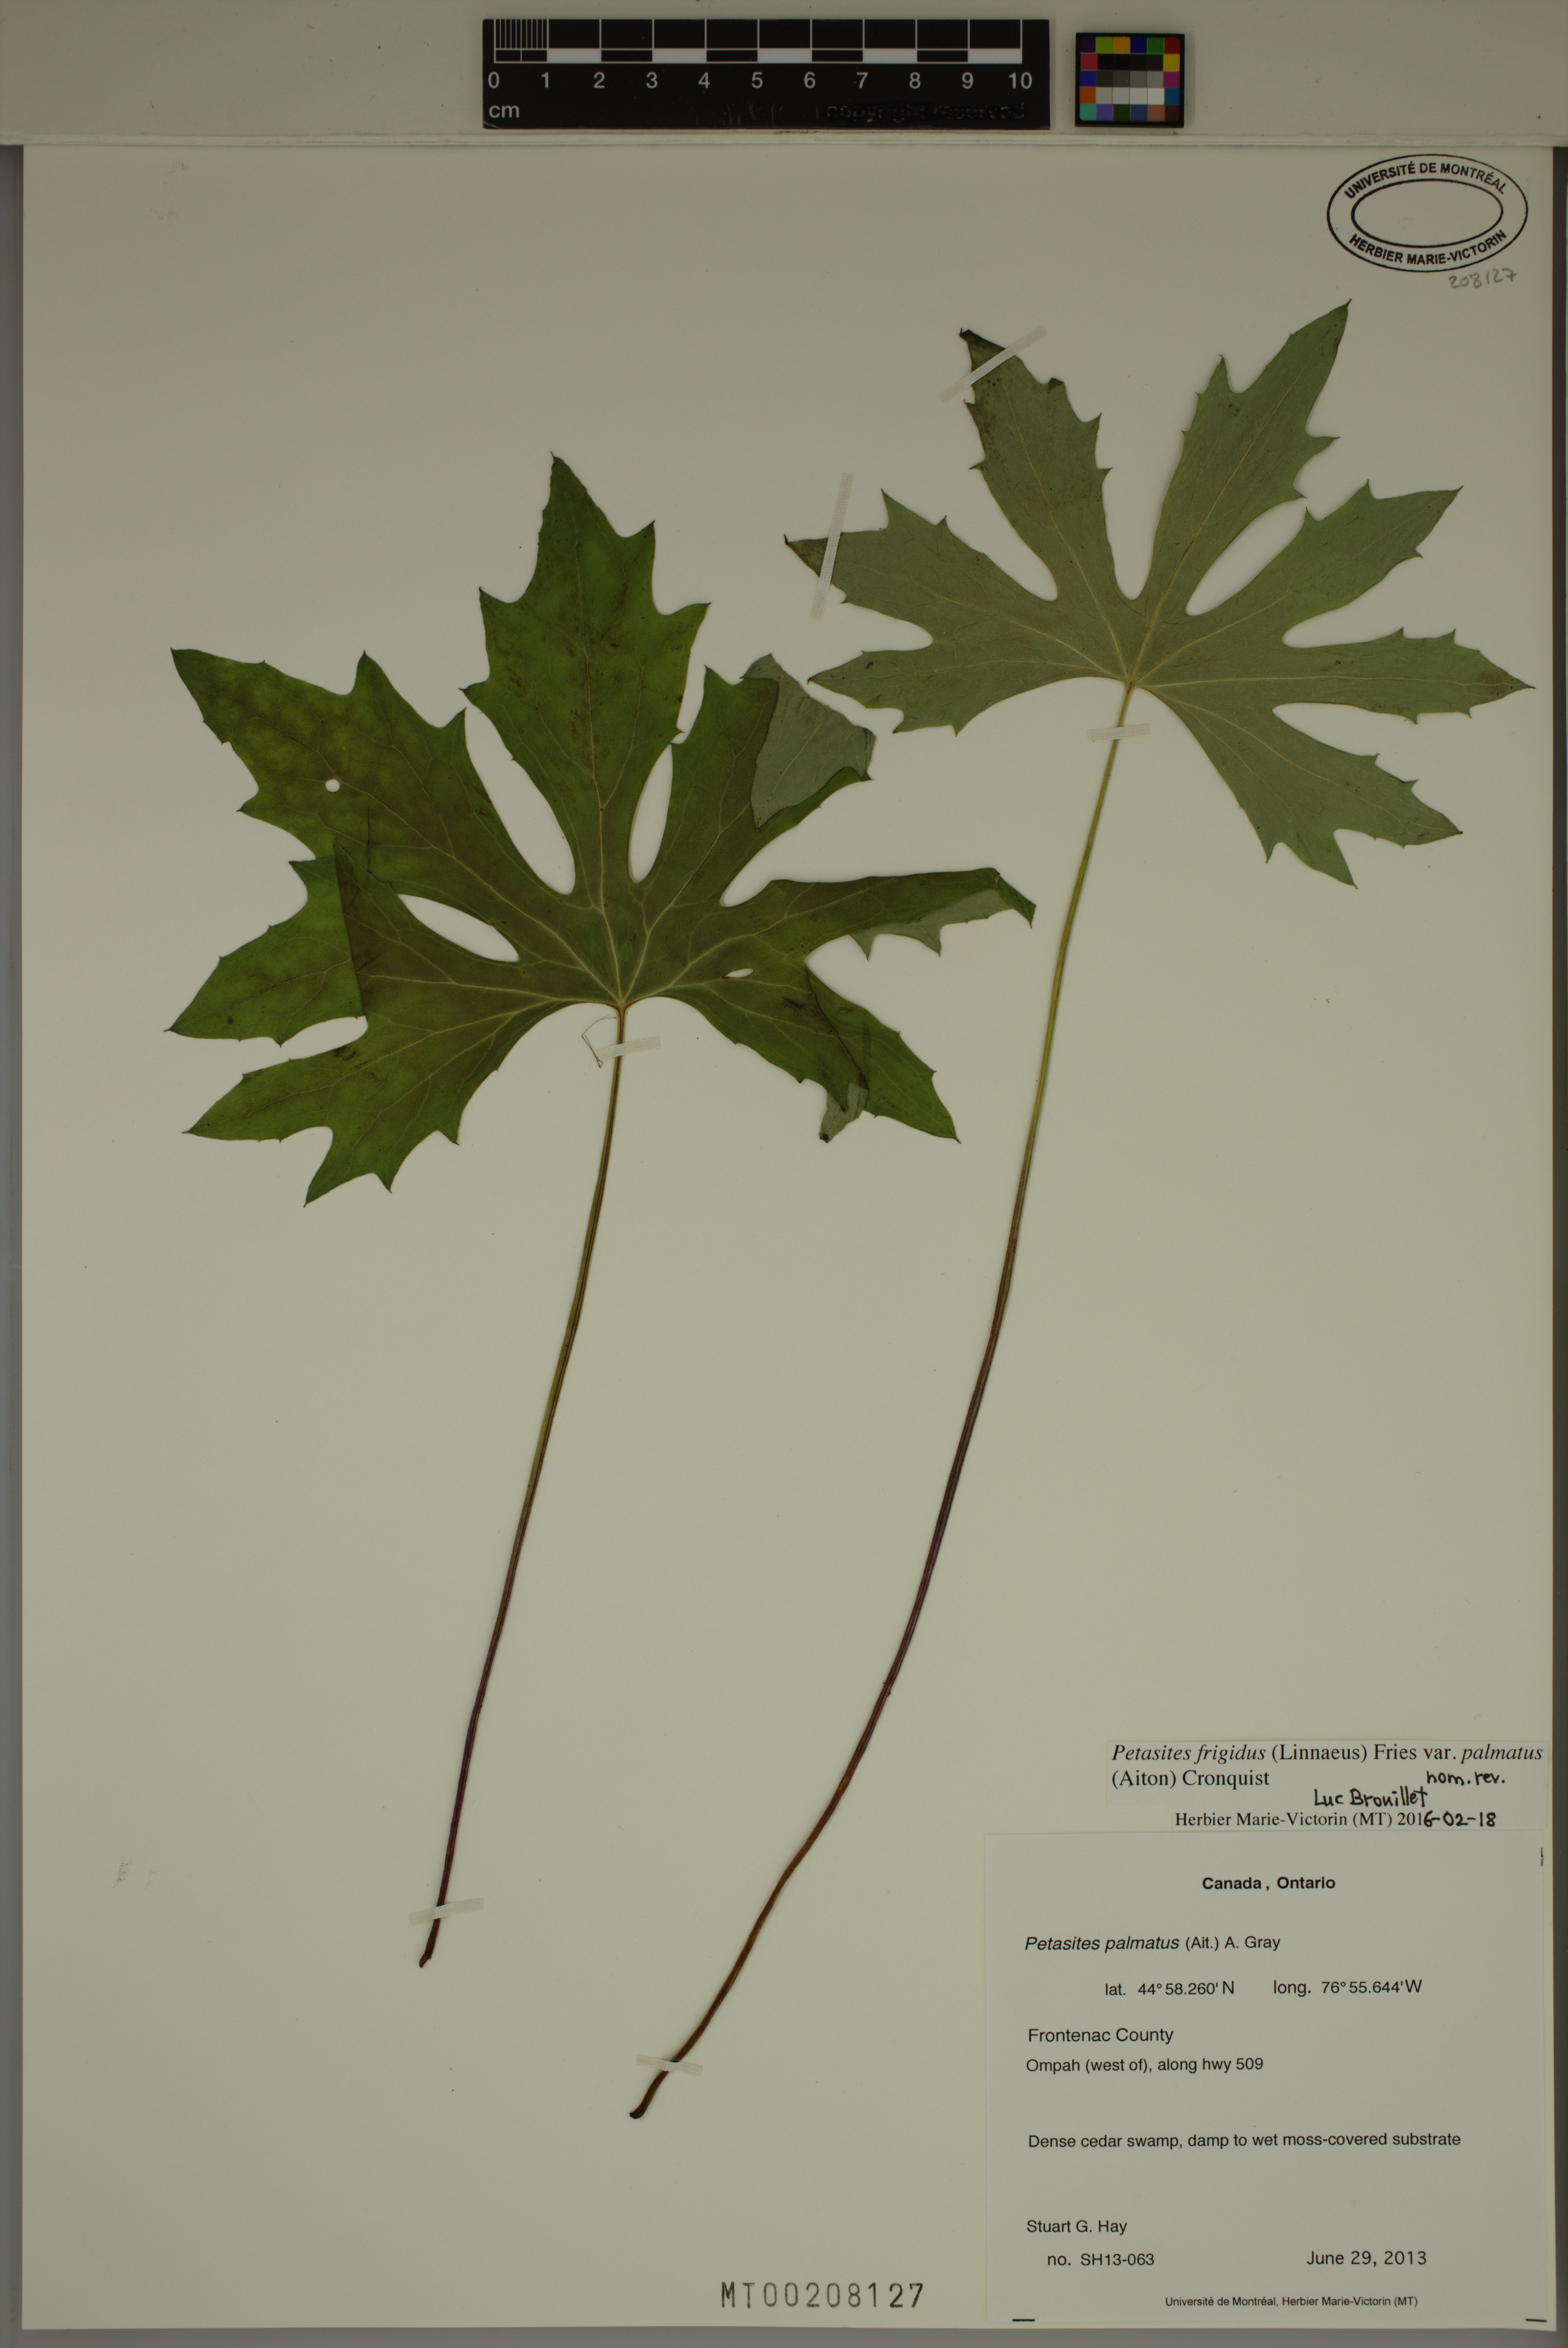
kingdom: Plantae
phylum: Tracheophyta
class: Magnoliopsida
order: Asterales
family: Asteraceae
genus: Petasites
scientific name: Petasites frigidus
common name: Arctic butterbur
